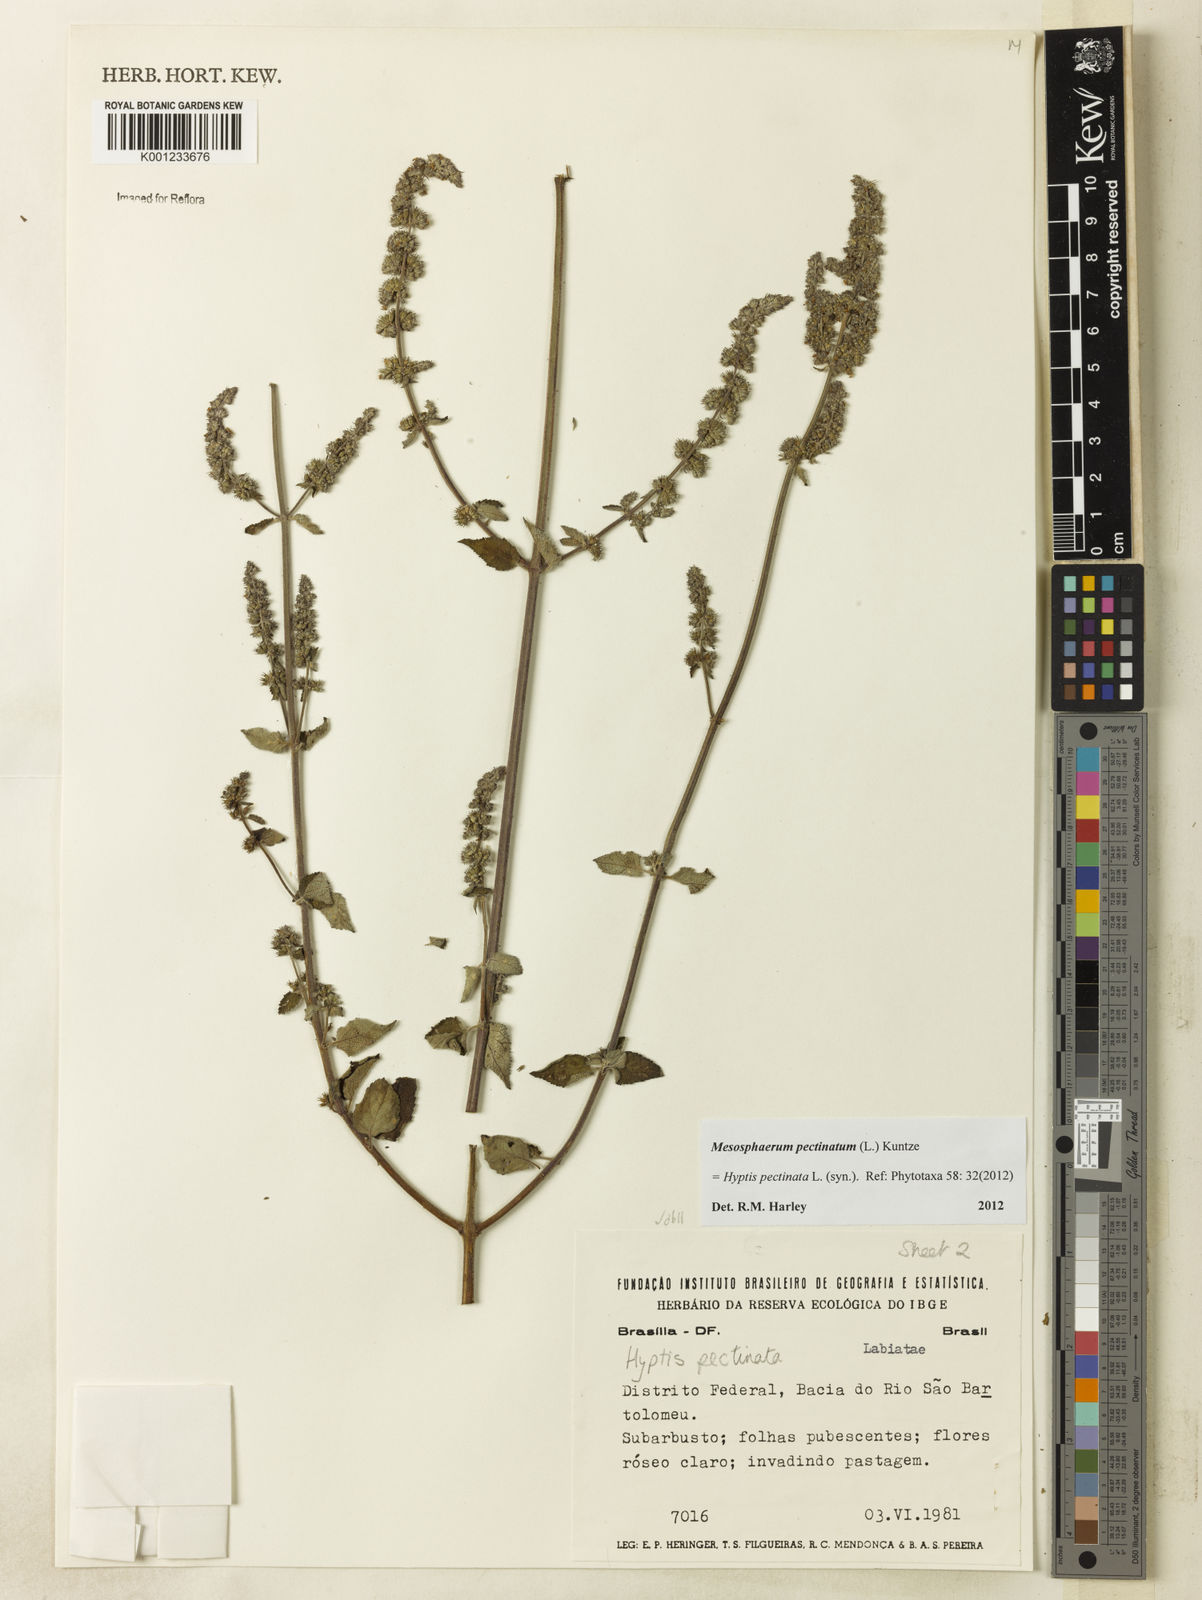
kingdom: Plantae
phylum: Tracheophyta
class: Magnoliopsida
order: Lamiales
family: Lamiaceae
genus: Mesosphaerum
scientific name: Mesosphaerum pectinatum
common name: Comb hyptis
